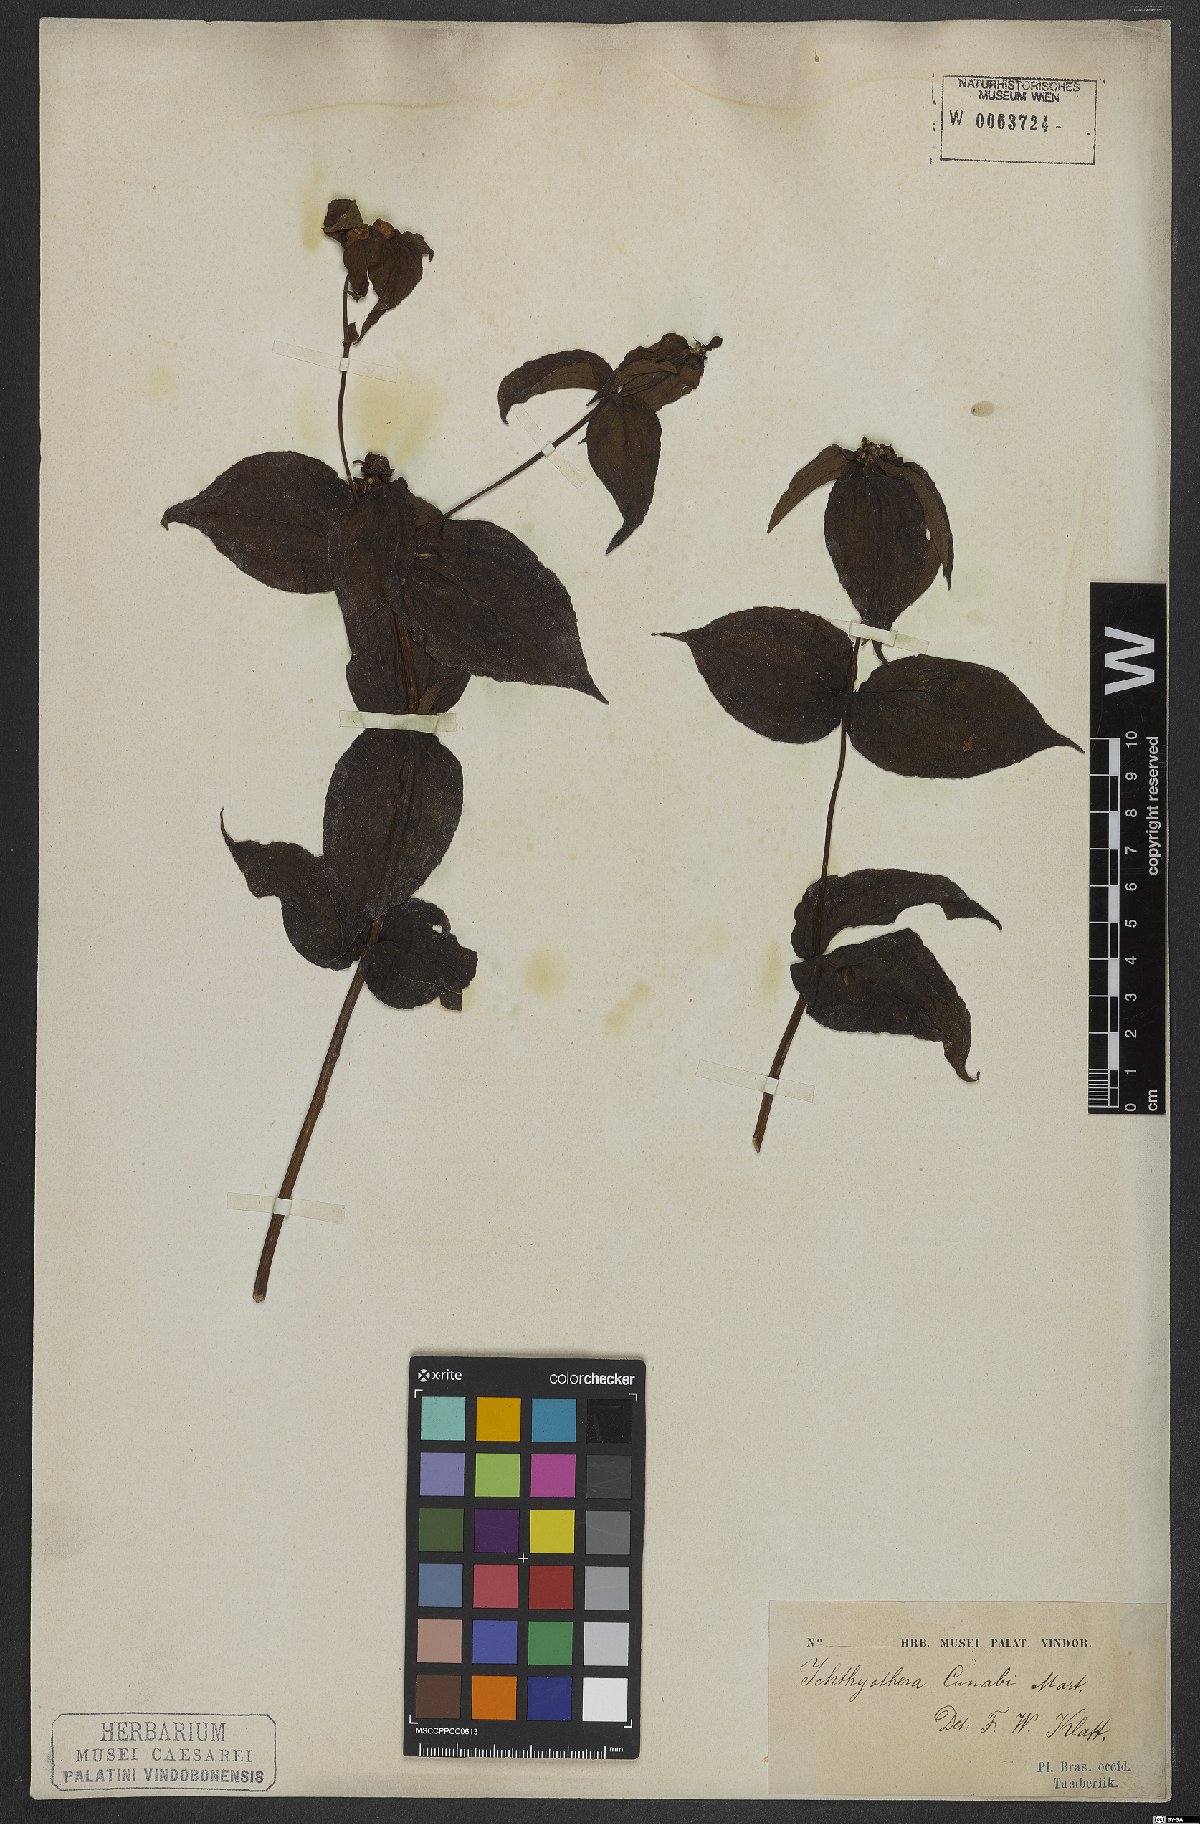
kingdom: Plantae
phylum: Tracheophyta
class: Magnoliopsida
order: Asterales
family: Asteraceae
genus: Ichthyothere
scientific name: Ichthyothere cunabi
